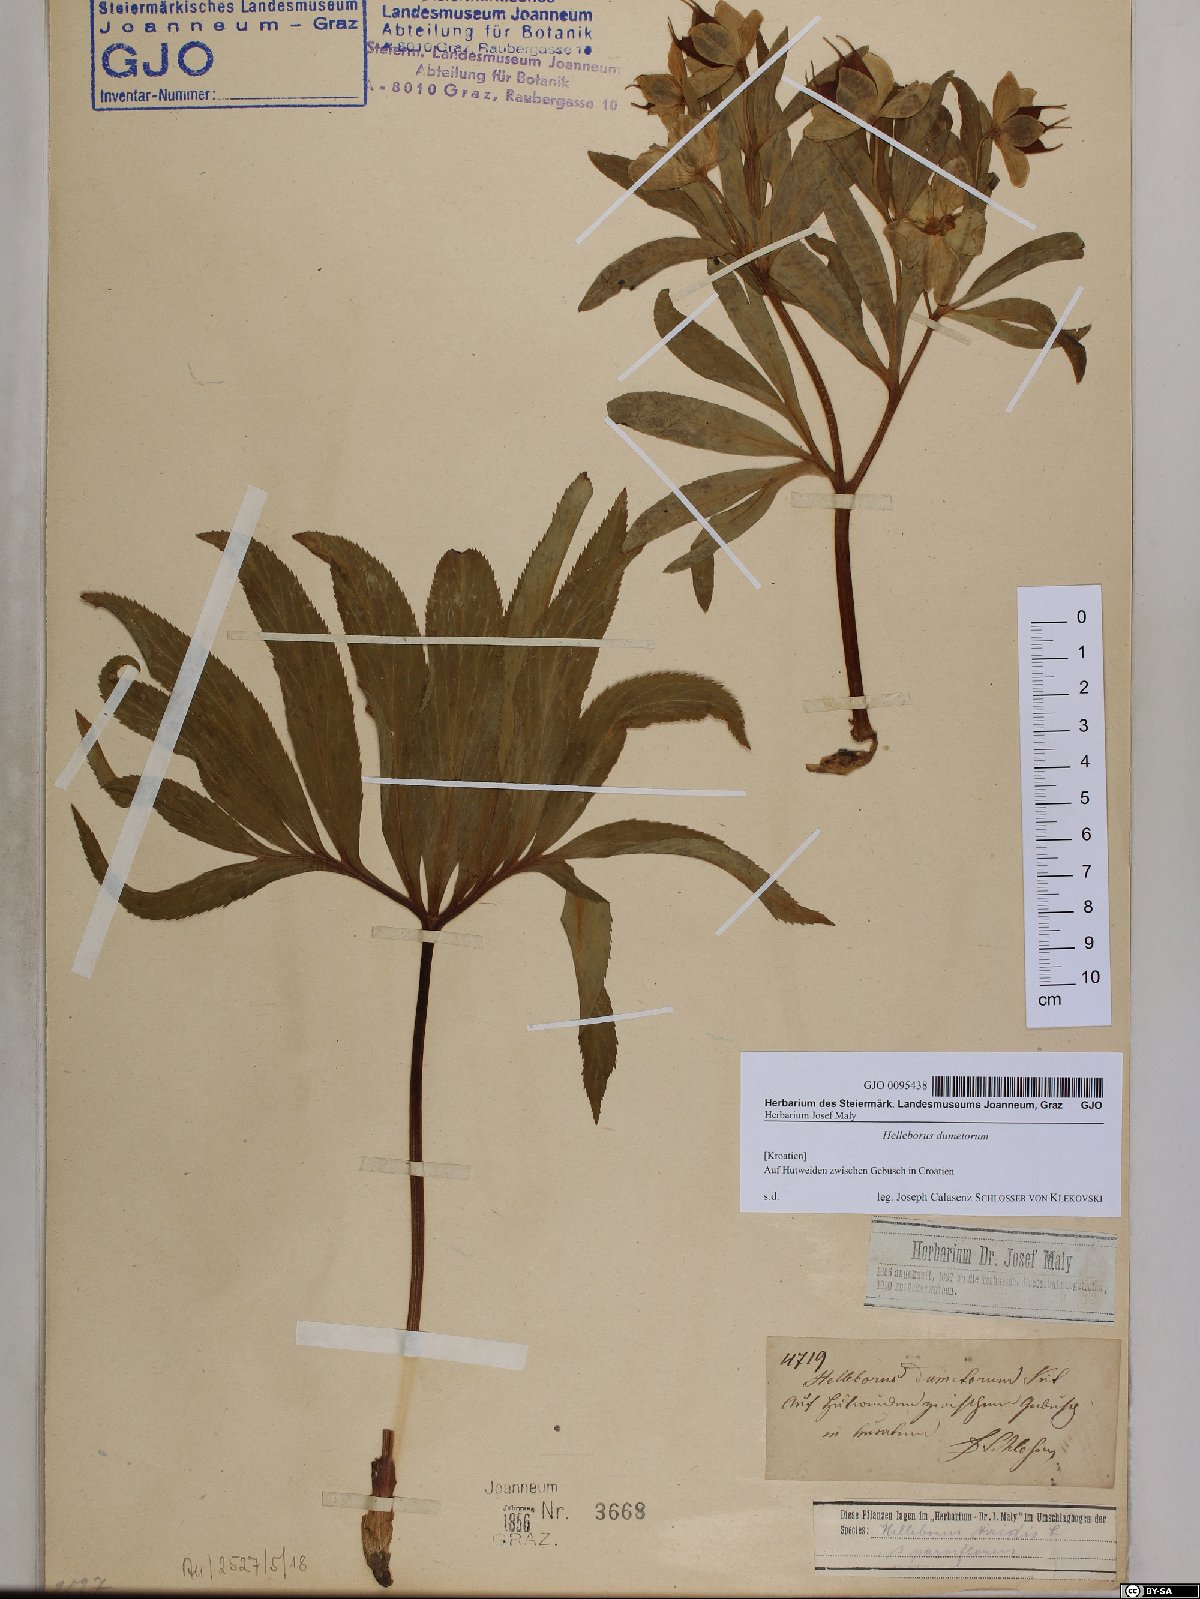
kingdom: Plantae
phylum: Tracheophyta
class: Magnoliopsida
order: Ranunculales
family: Ranunculaceae
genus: Helleborus
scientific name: Helleborus dumetorum
